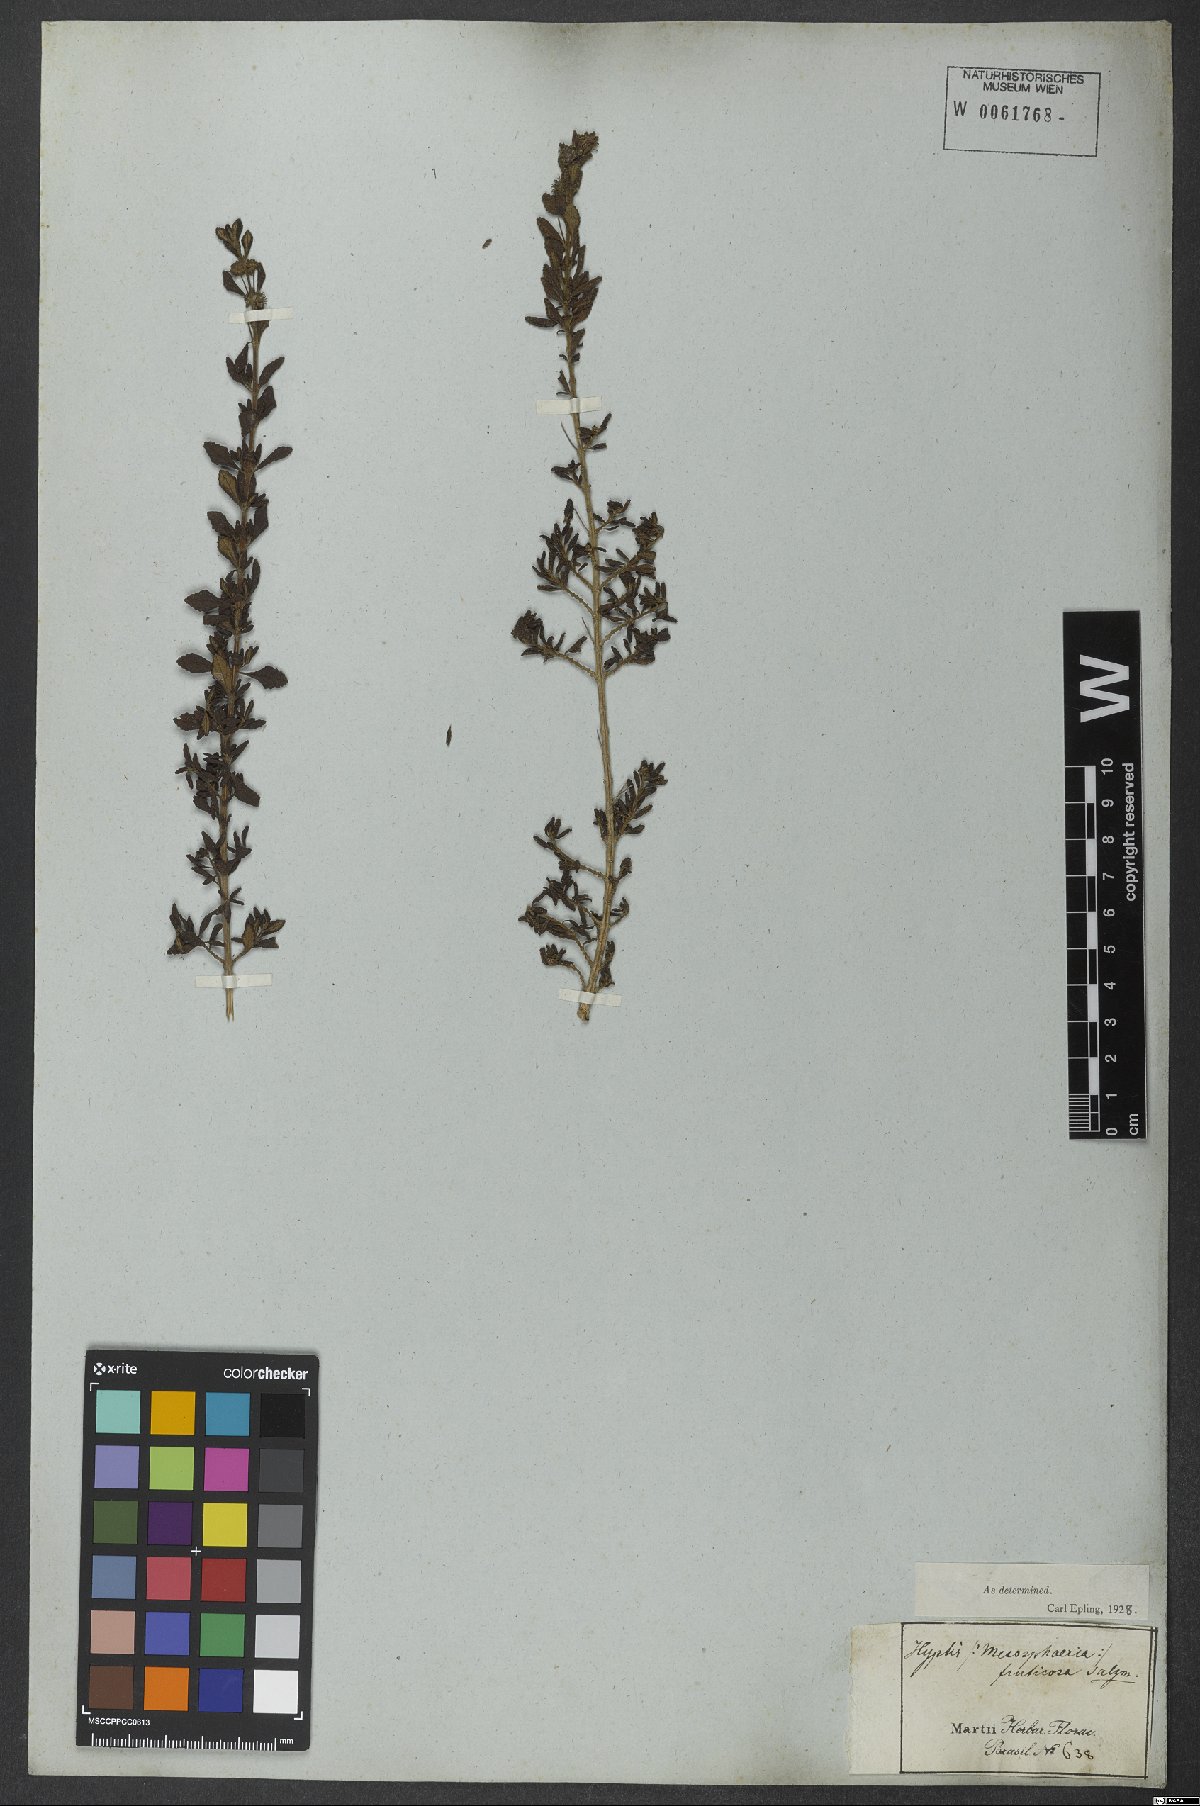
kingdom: Plantae
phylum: Tracheophyta
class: Magnoliopsida
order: Lamiales
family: Lamiaceae
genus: Eplingiella
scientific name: Eplingiella fruticosa
